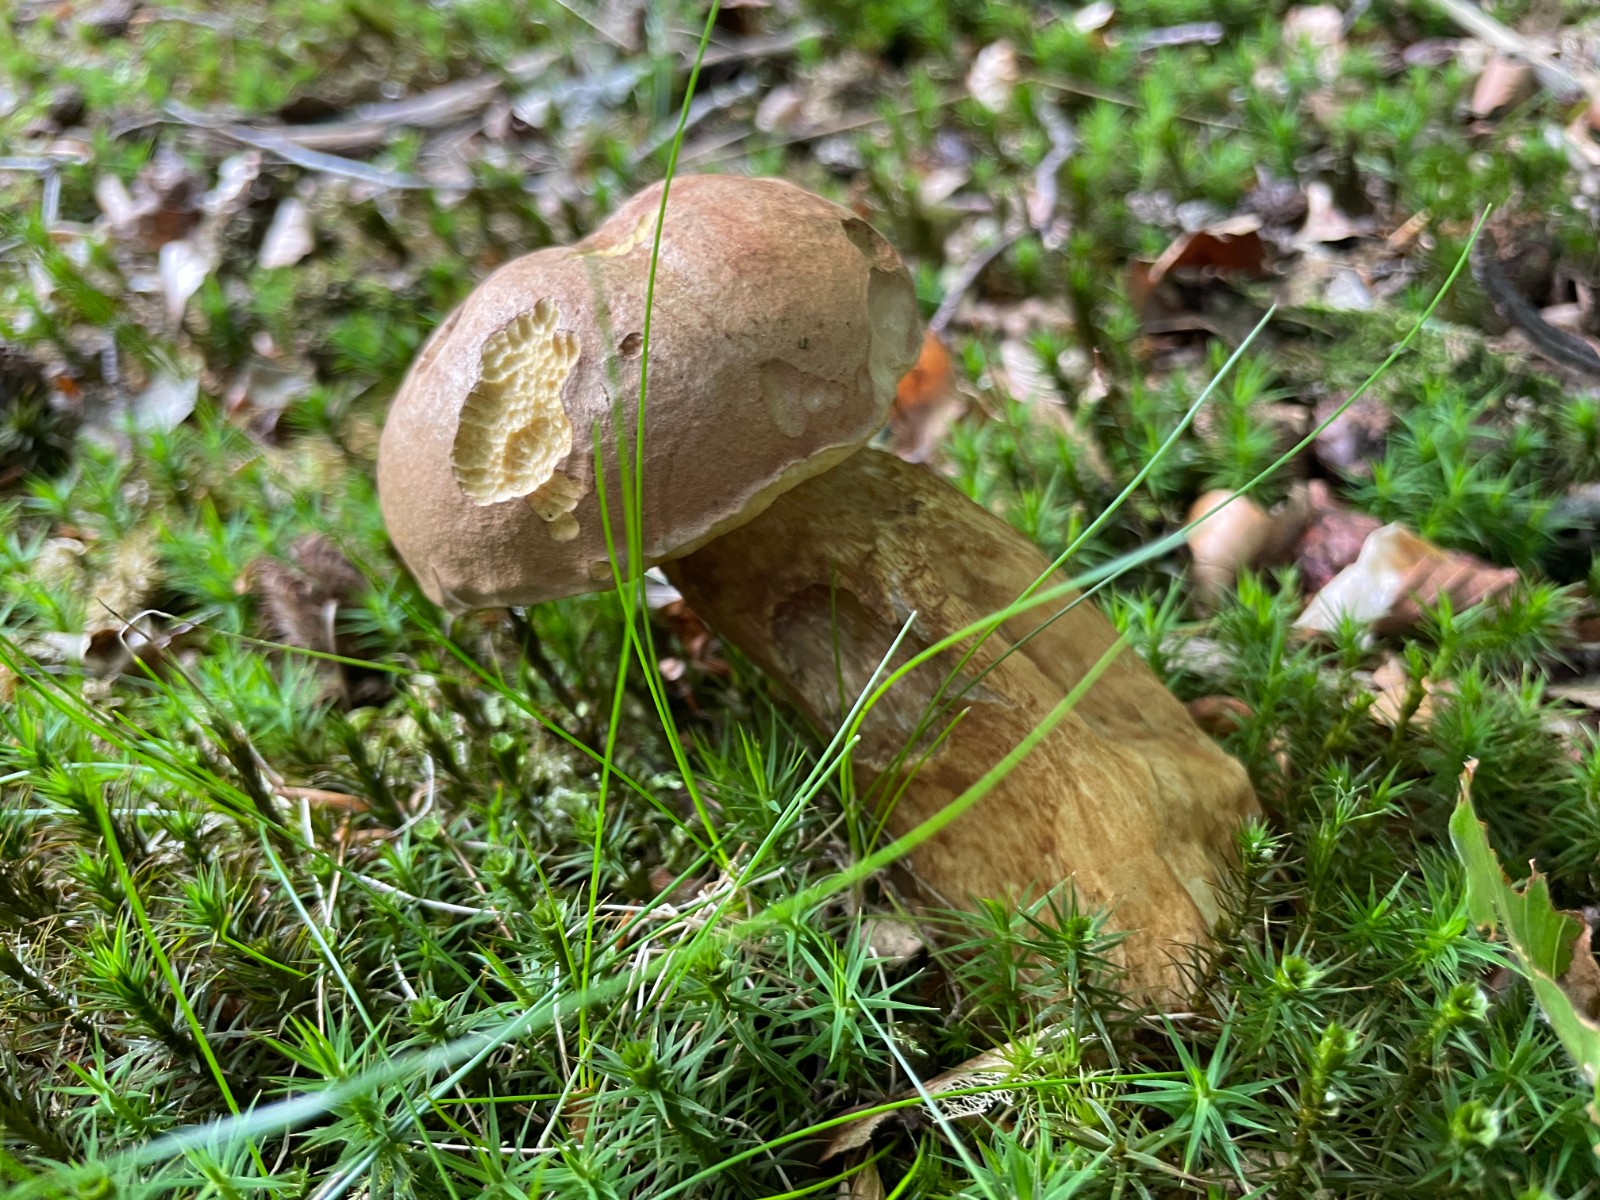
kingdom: Fungi
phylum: Basidiomycota
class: Agaricomycetes
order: Boletales
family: Boletaceae
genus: Tylopilus
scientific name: Tylopilus felleus
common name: galderørhat
